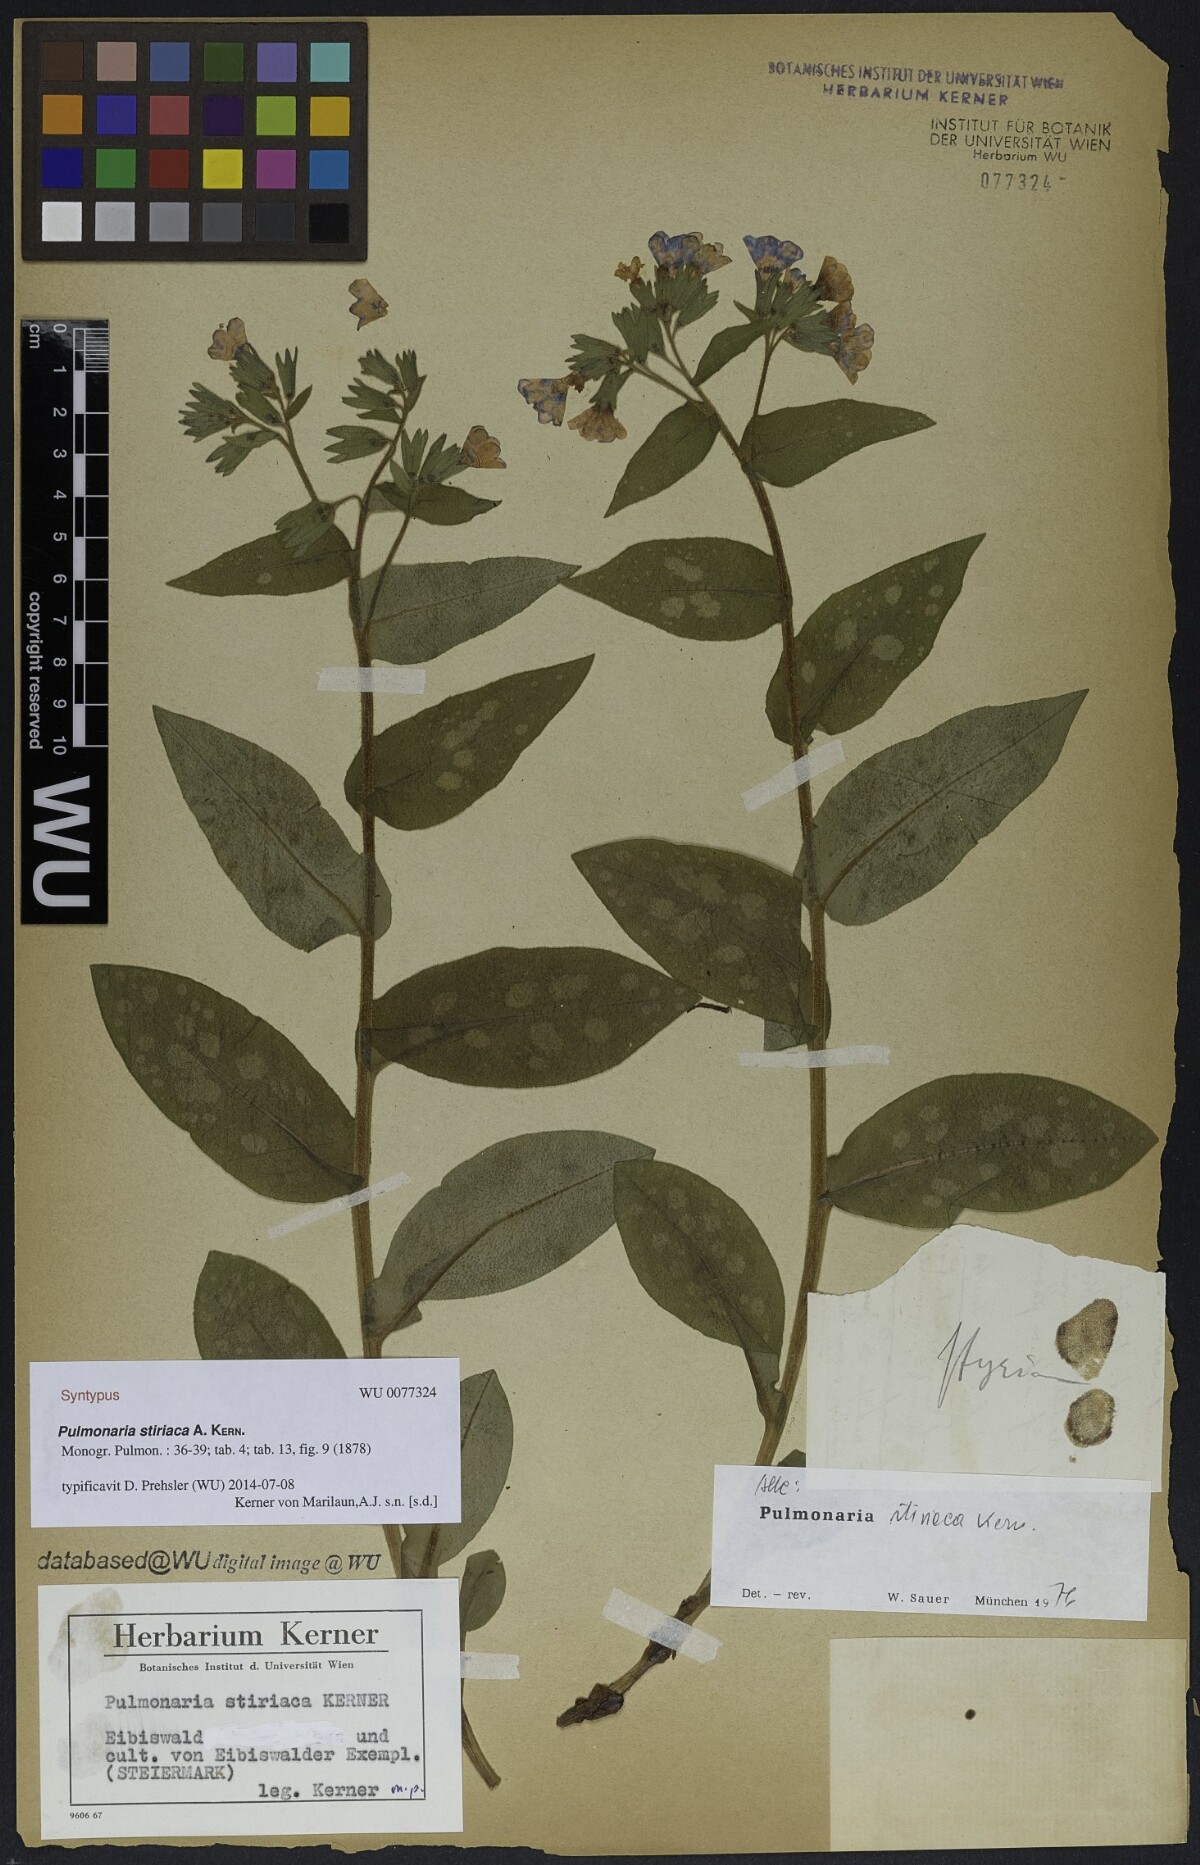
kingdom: Plantae
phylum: Tracheophyta
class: Magnoliopsida
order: Boraginales
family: Boraginaceae
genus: Pulmonaria
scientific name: Pulmonaria stiriaca
